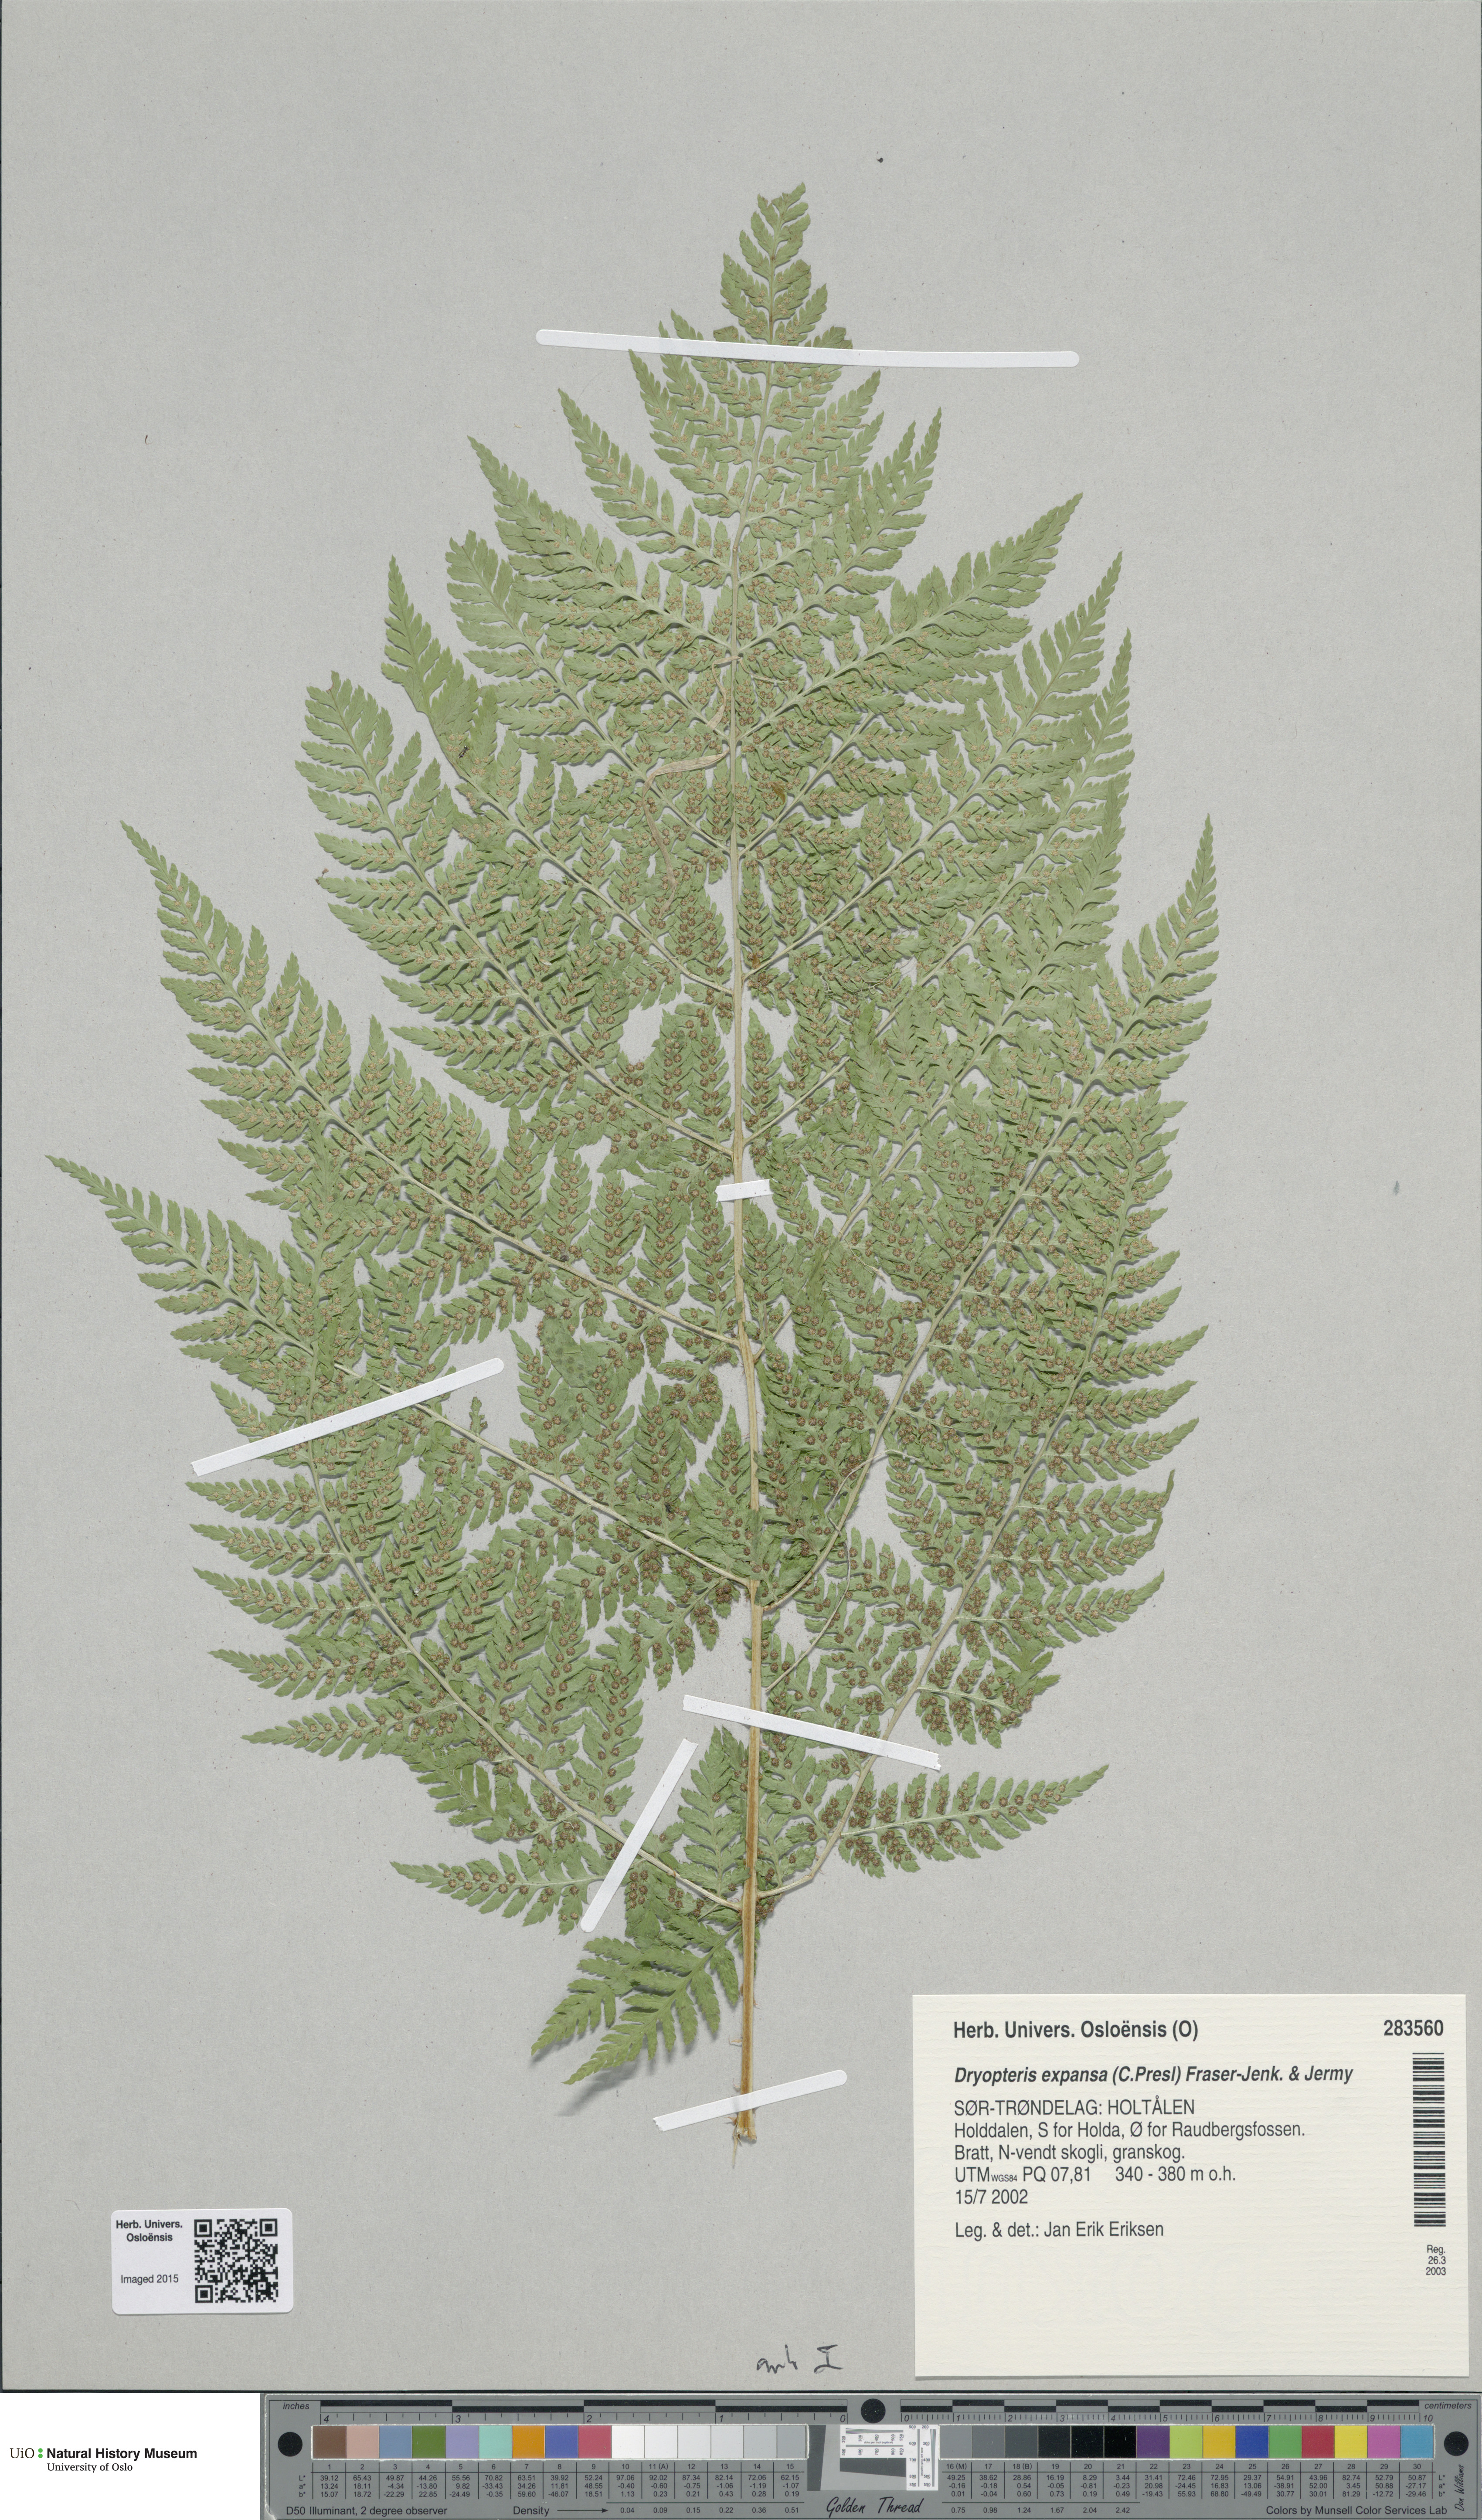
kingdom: Plantae
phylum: Tracheophyta
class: Polypodiopsida
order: Polypodiales
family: Dryopteridaceae
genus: Dryopteris
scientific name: Dryopteris expansa
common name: Northern buckler fern
